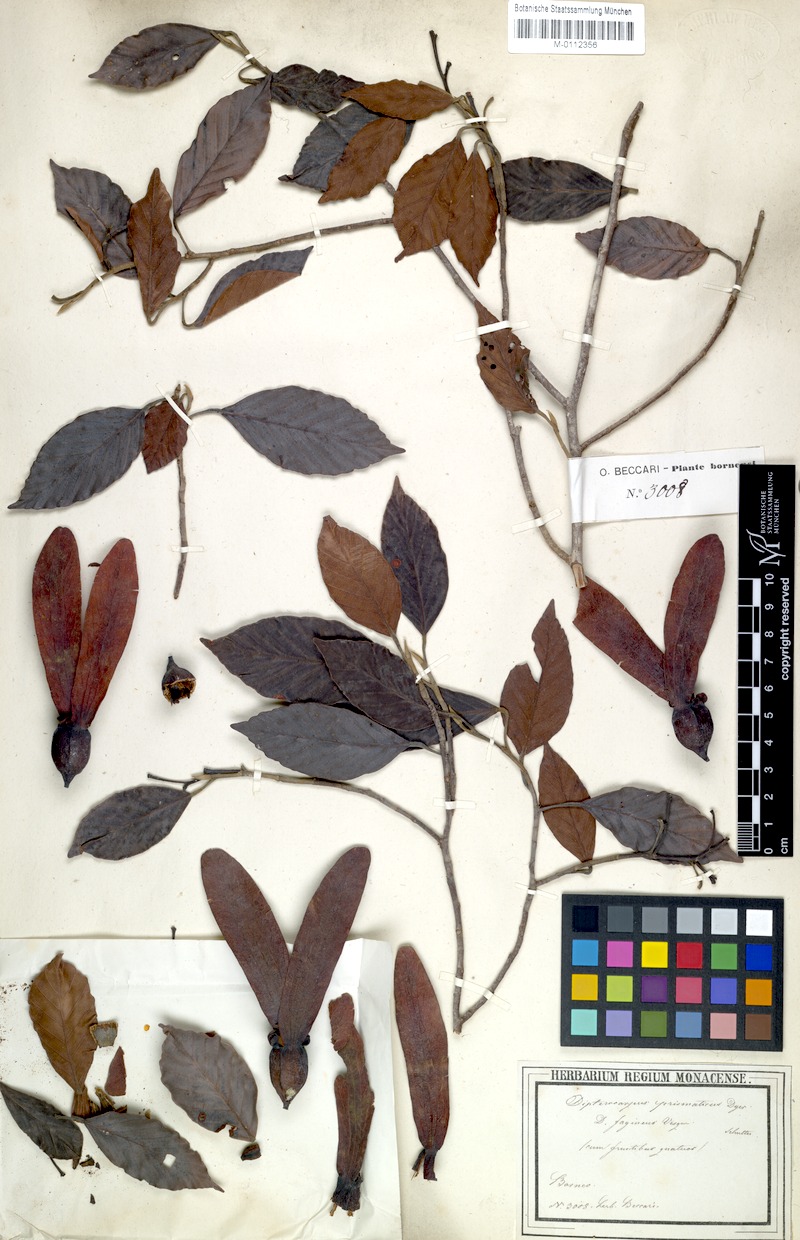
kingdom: Plantae
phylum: Tracheophyta
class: Magnoliopsida
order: Malvales
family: Dipterocarpaceae
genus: Dipterocarpus
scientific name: Dipterocarpus fagineus
